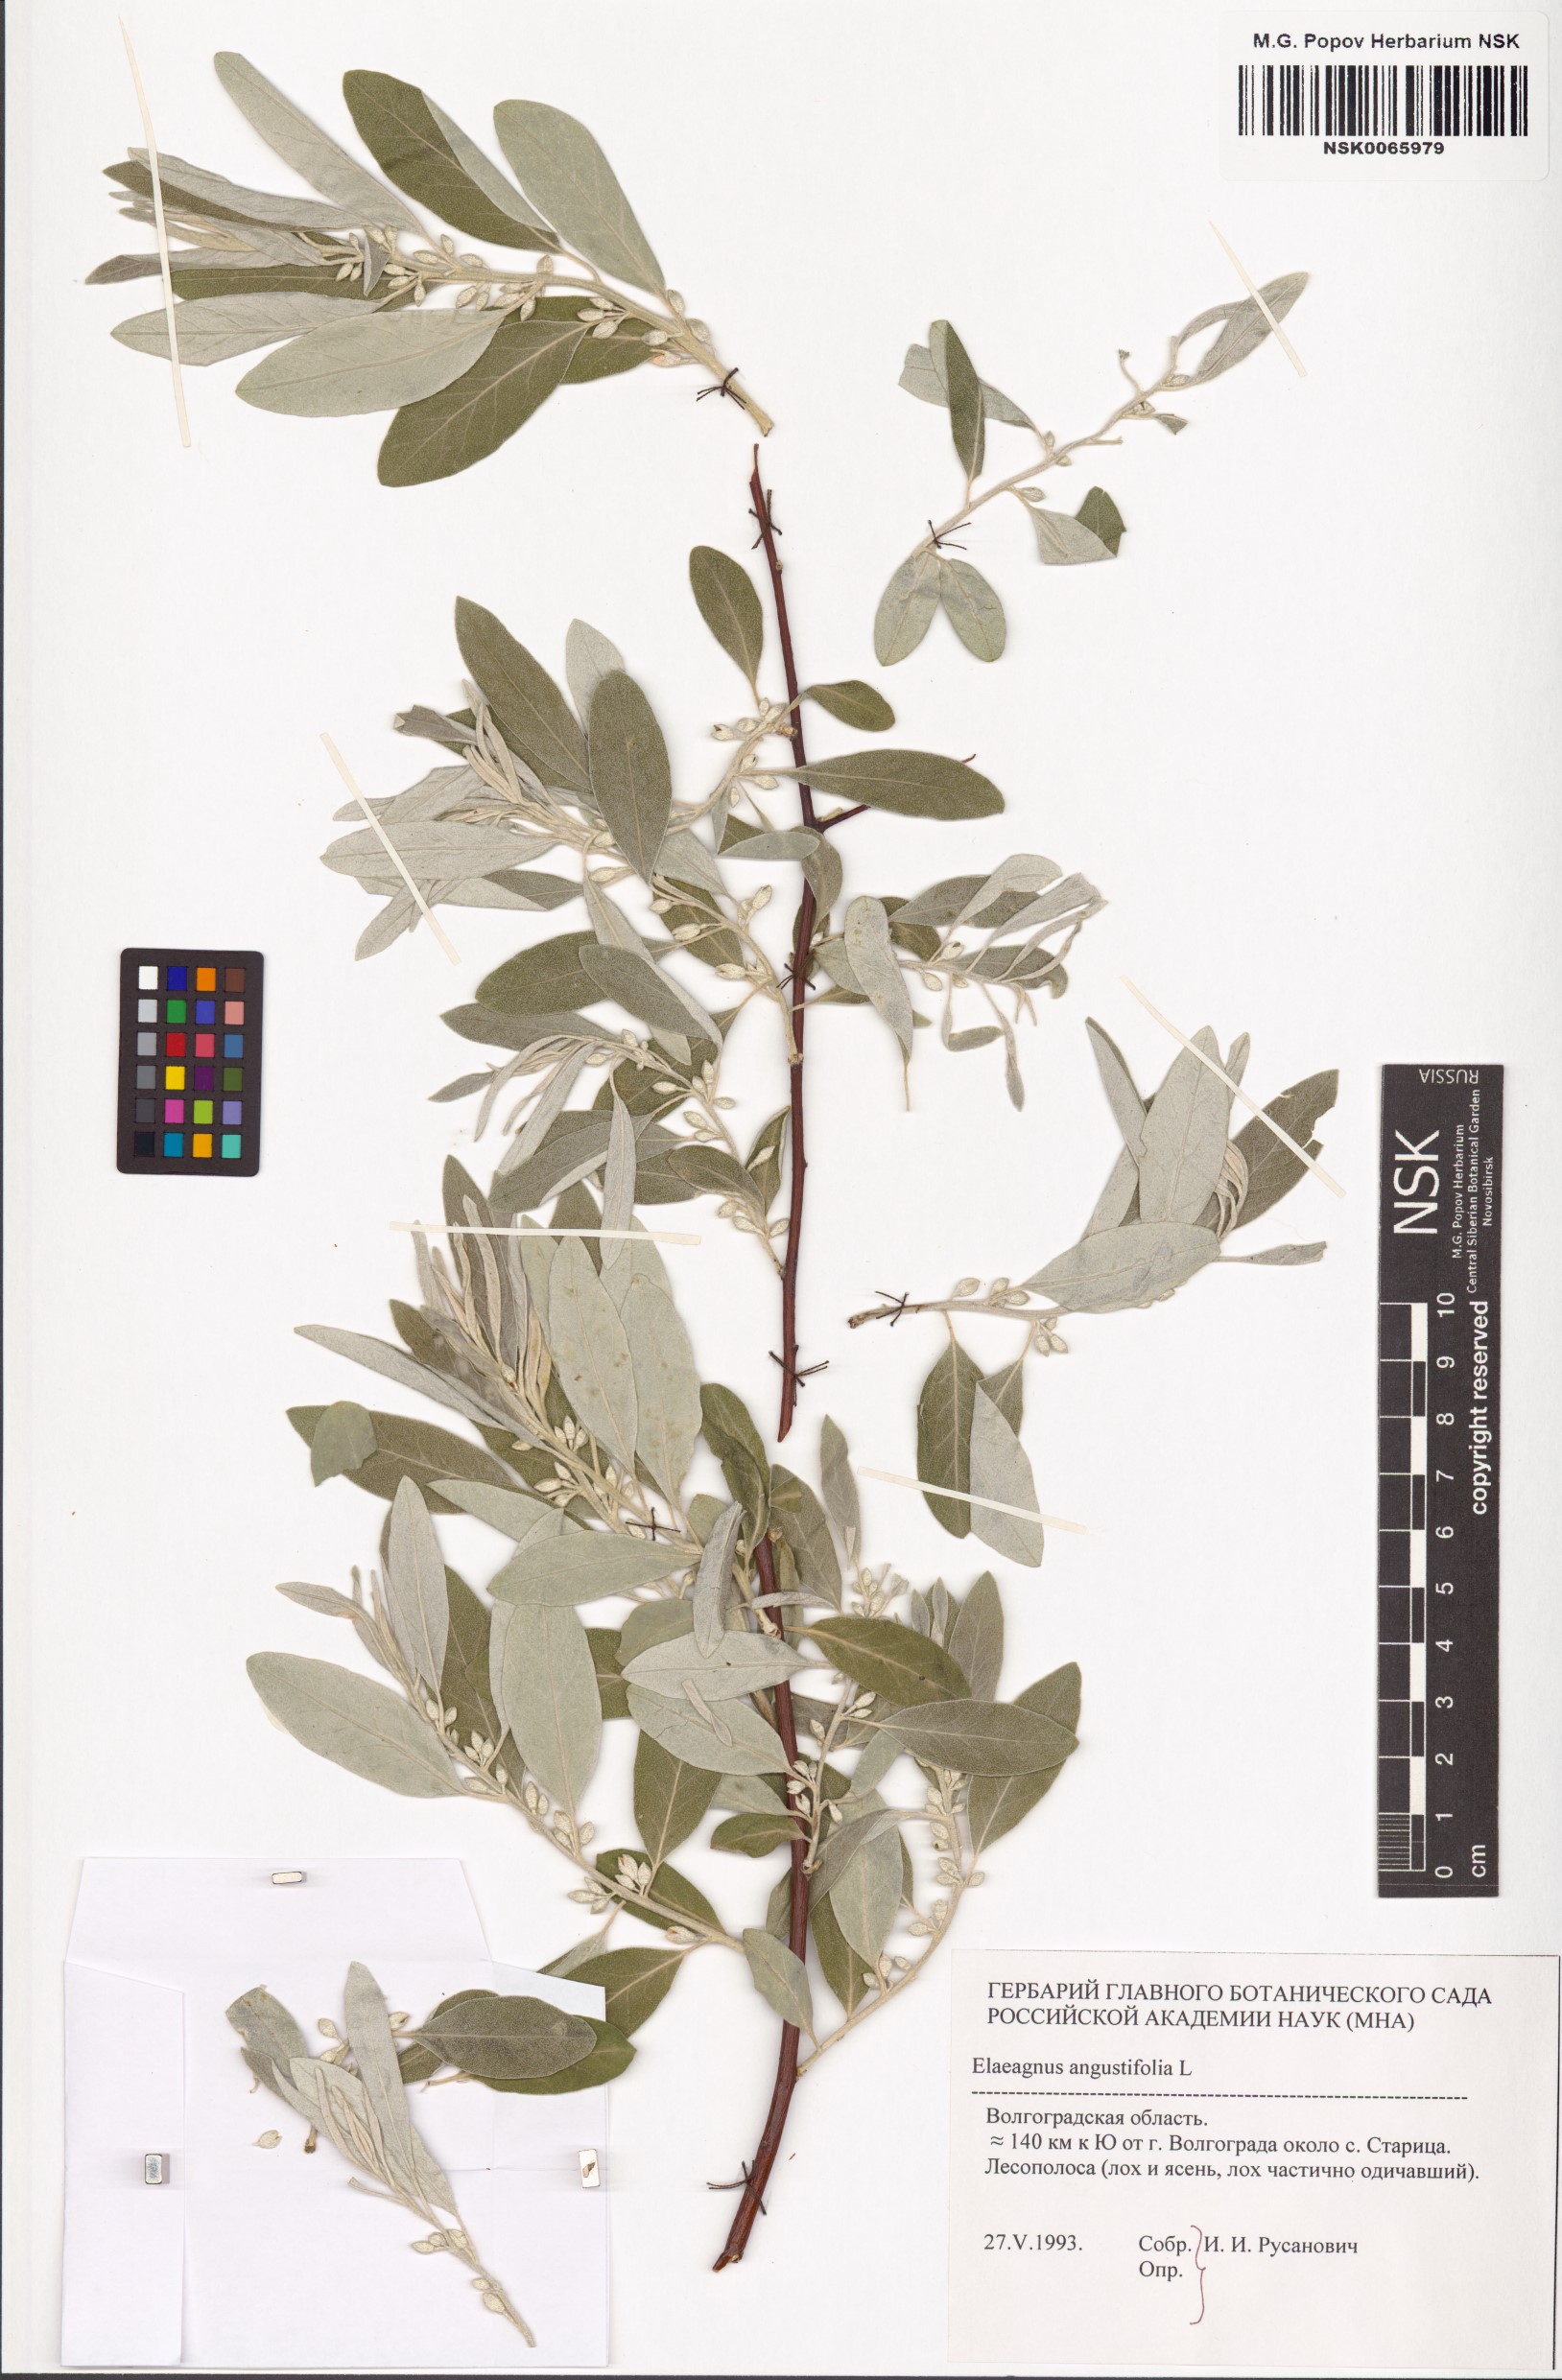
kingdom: Plantae
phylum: Tracheophyta
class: Magnoliopsida
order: Rosales
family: Elaeagnaceae
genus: Elaeagnus
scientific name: Elaeagnus angustifolia
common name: Russian olive
